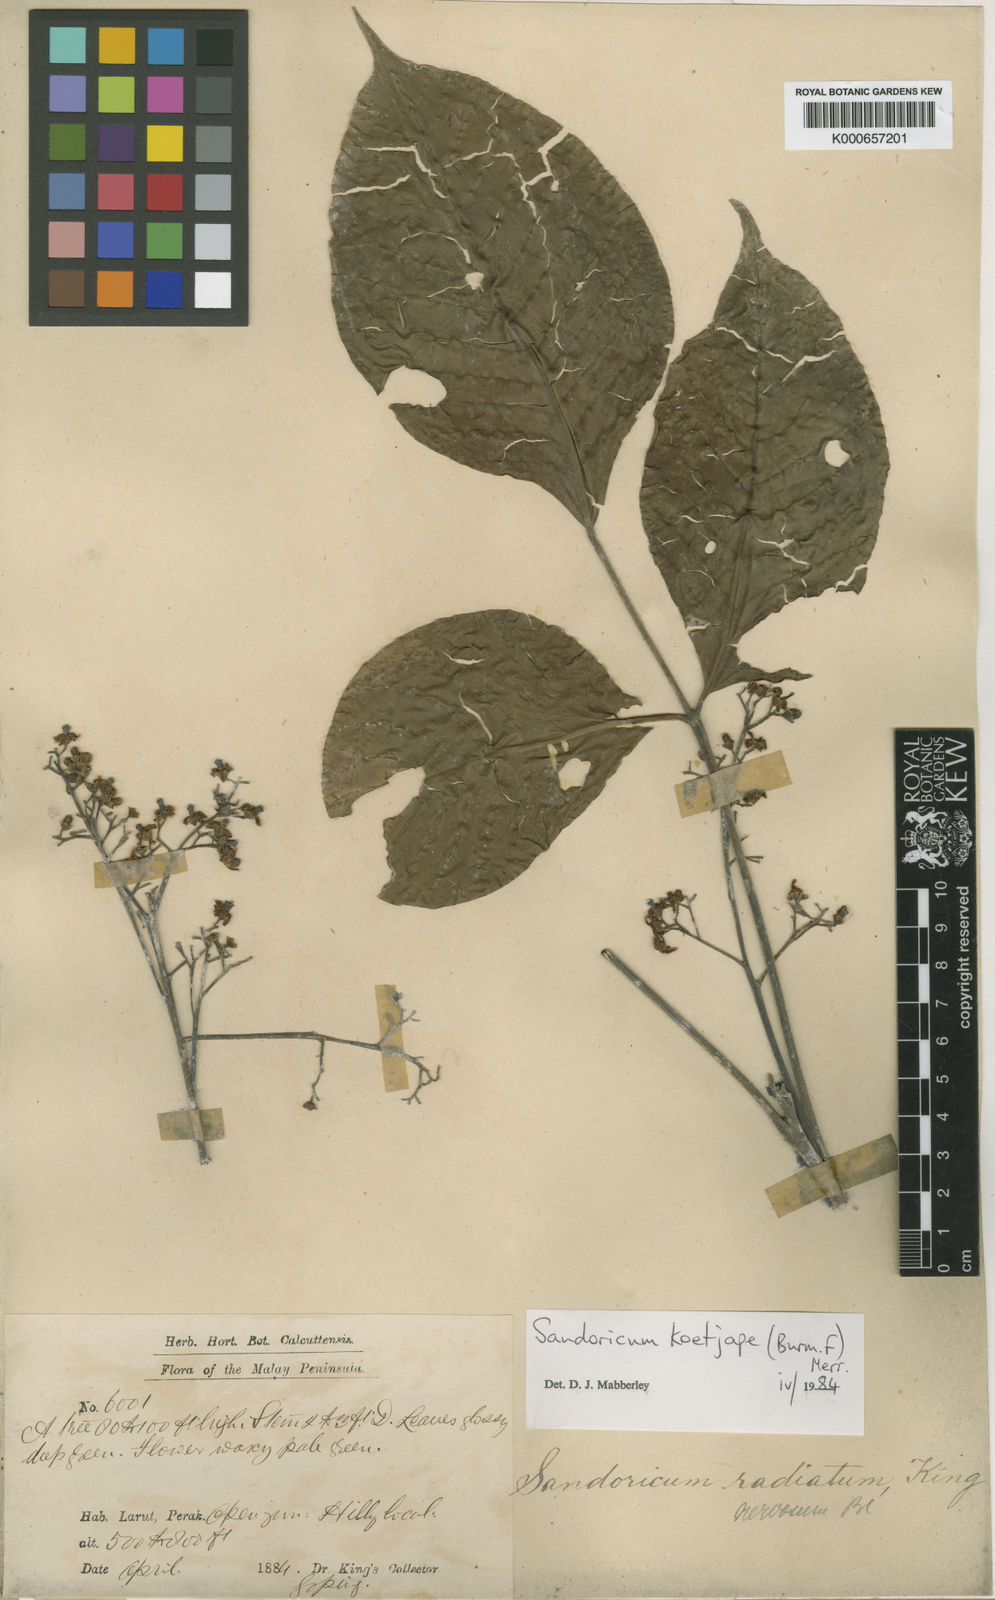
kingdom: Plantae
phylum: Tracheophyta
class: Magnoliopsida
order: Sapindales
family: Meliaceae
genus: Sandoricum
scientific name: Sandoricum koetjape
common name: Santol
